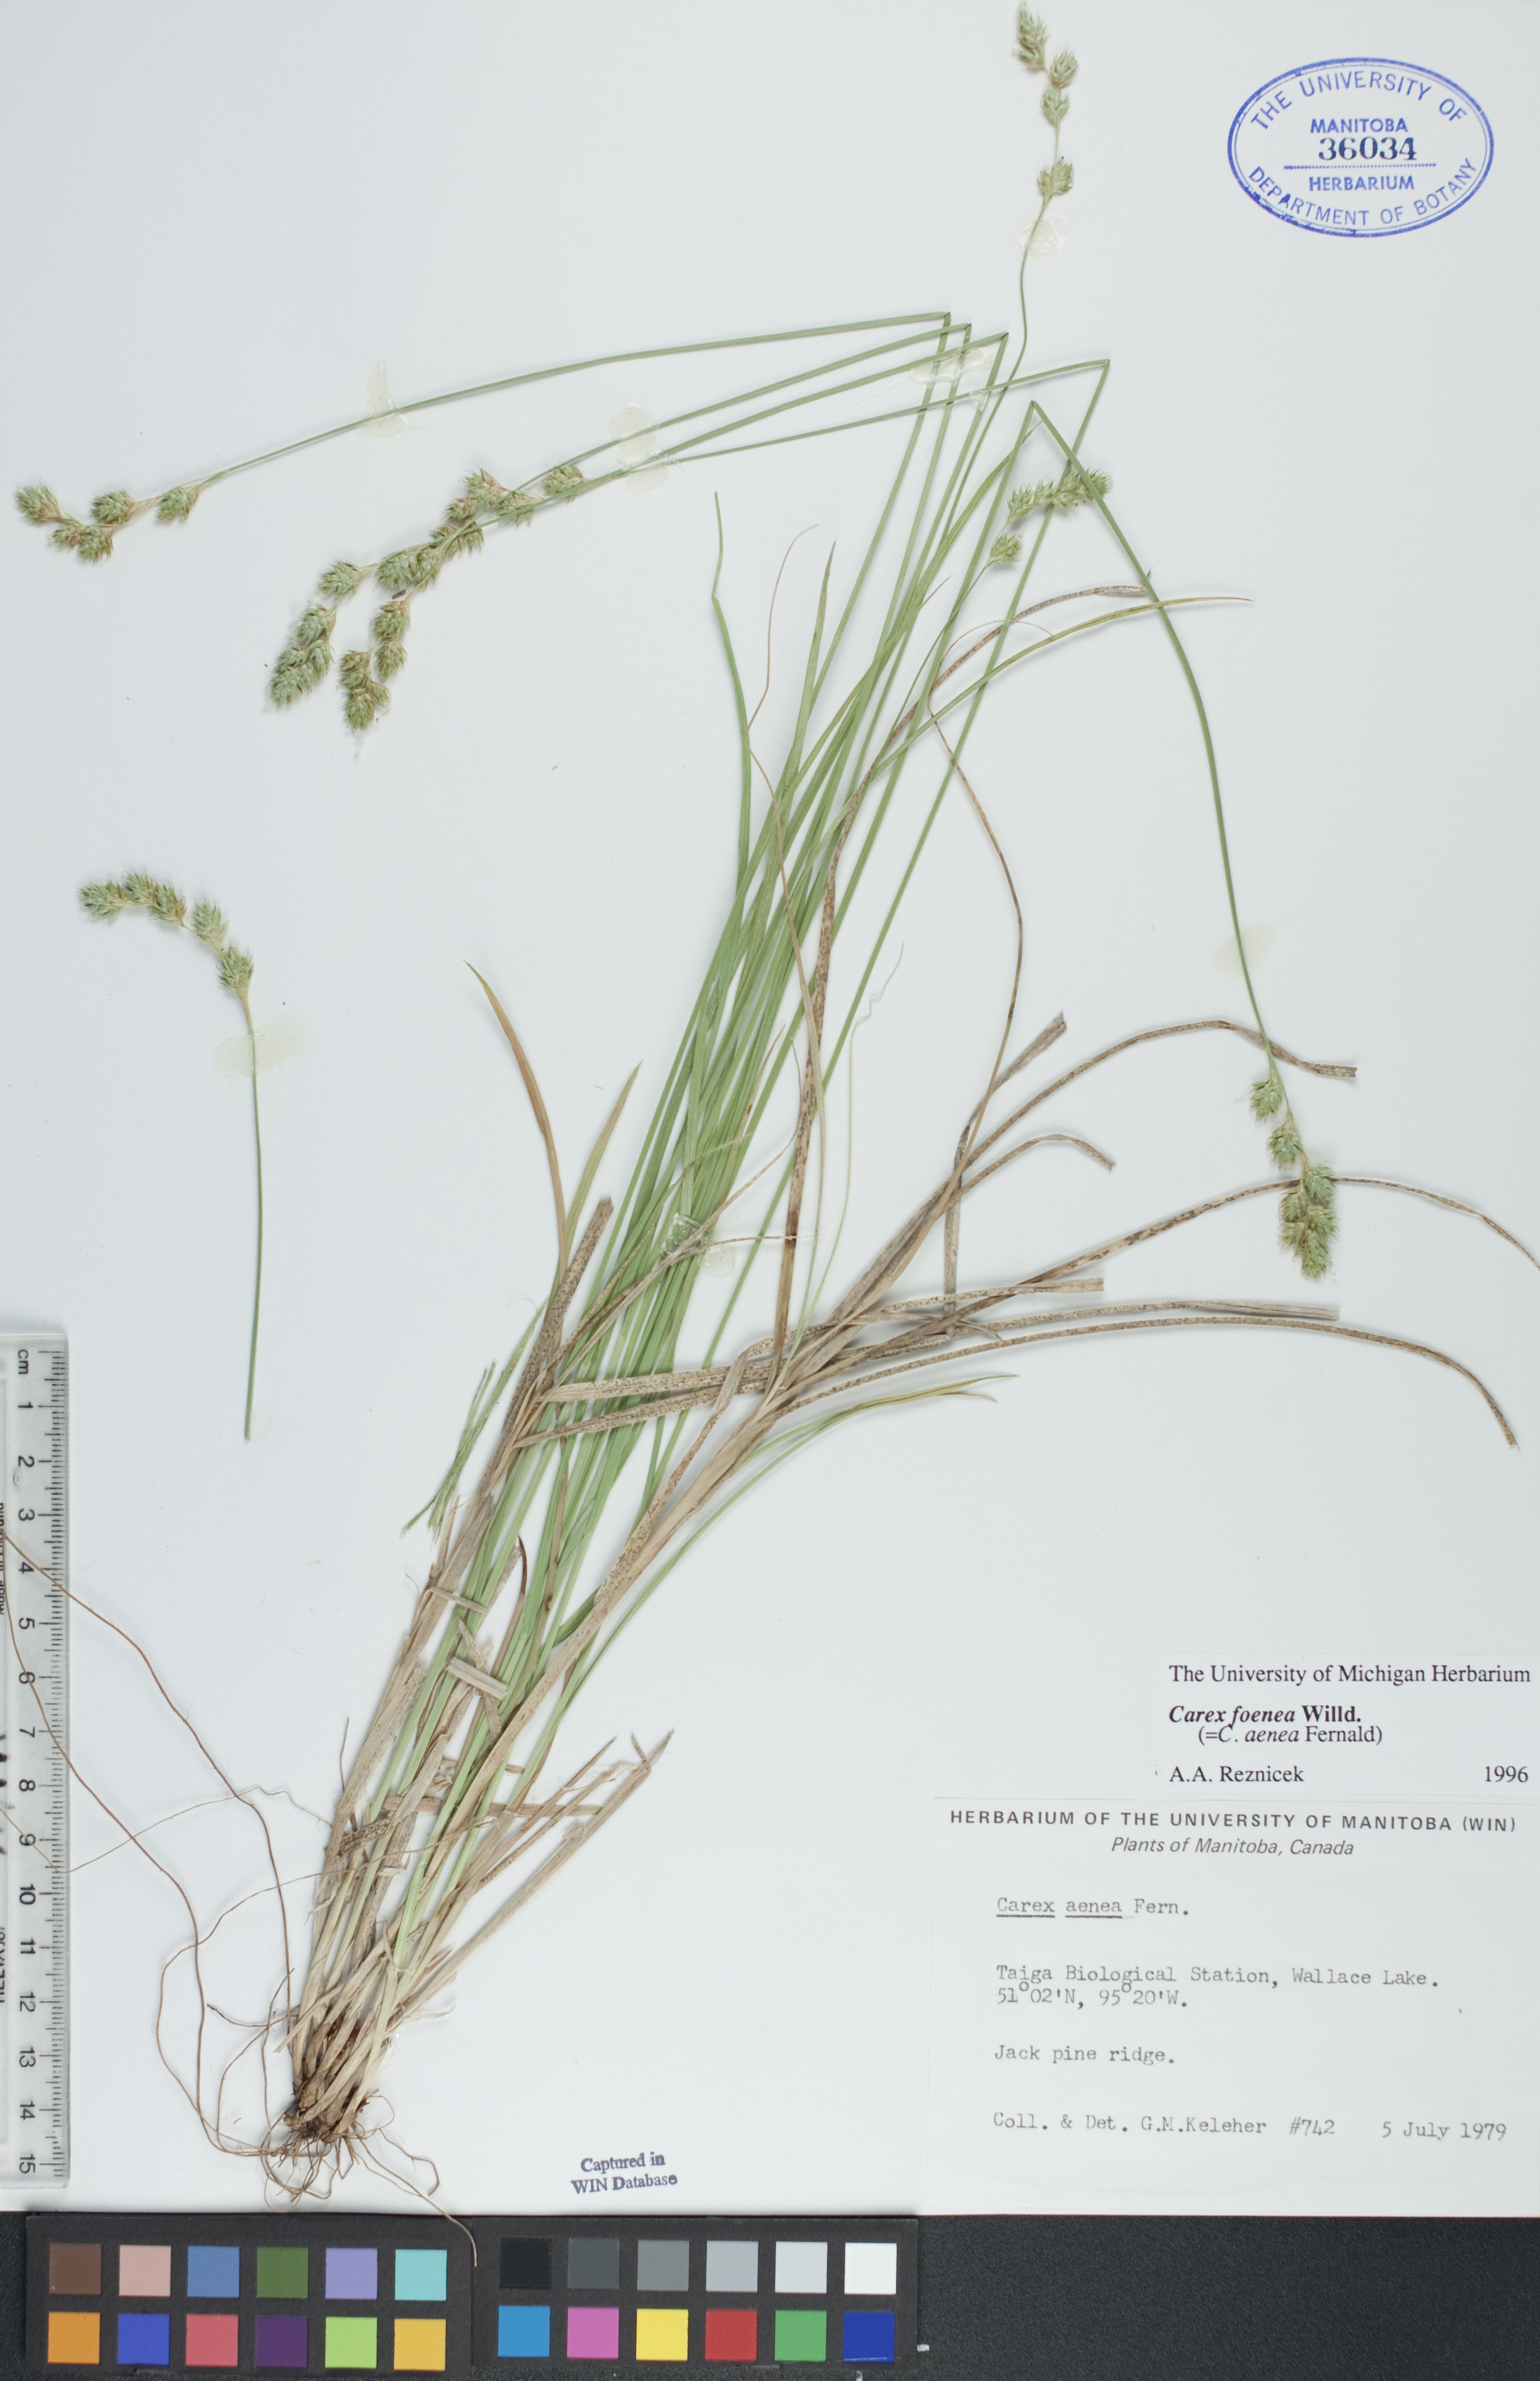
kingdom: Plantae
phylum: Tracheophyta
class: Liliopsida
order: Poales
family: Cyperaceae
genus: Carex
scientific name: Carex foenea
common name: Bronze sedge
